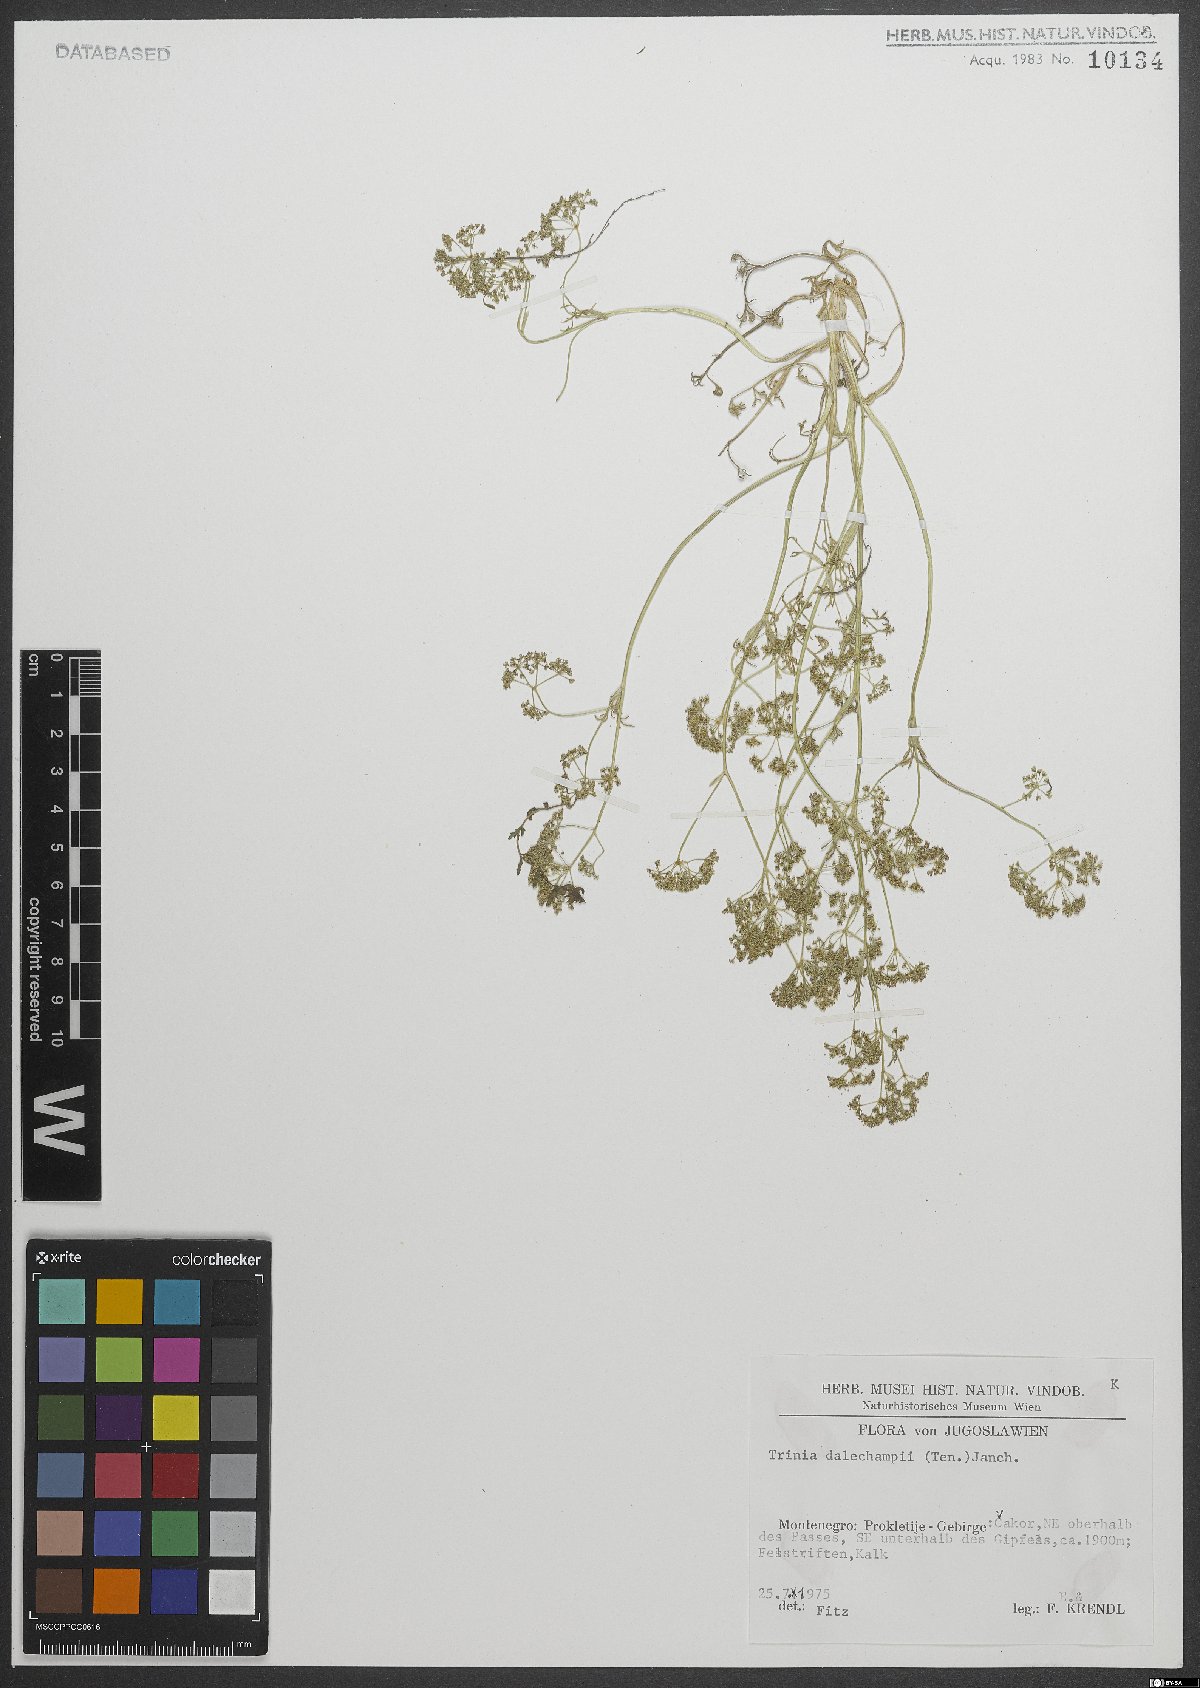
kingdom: Plantae
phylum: Tracheophyta
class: Magnoliopsida
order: Apiales
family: Apiaceae
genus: Trinia
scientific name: Trinia dalechampii
